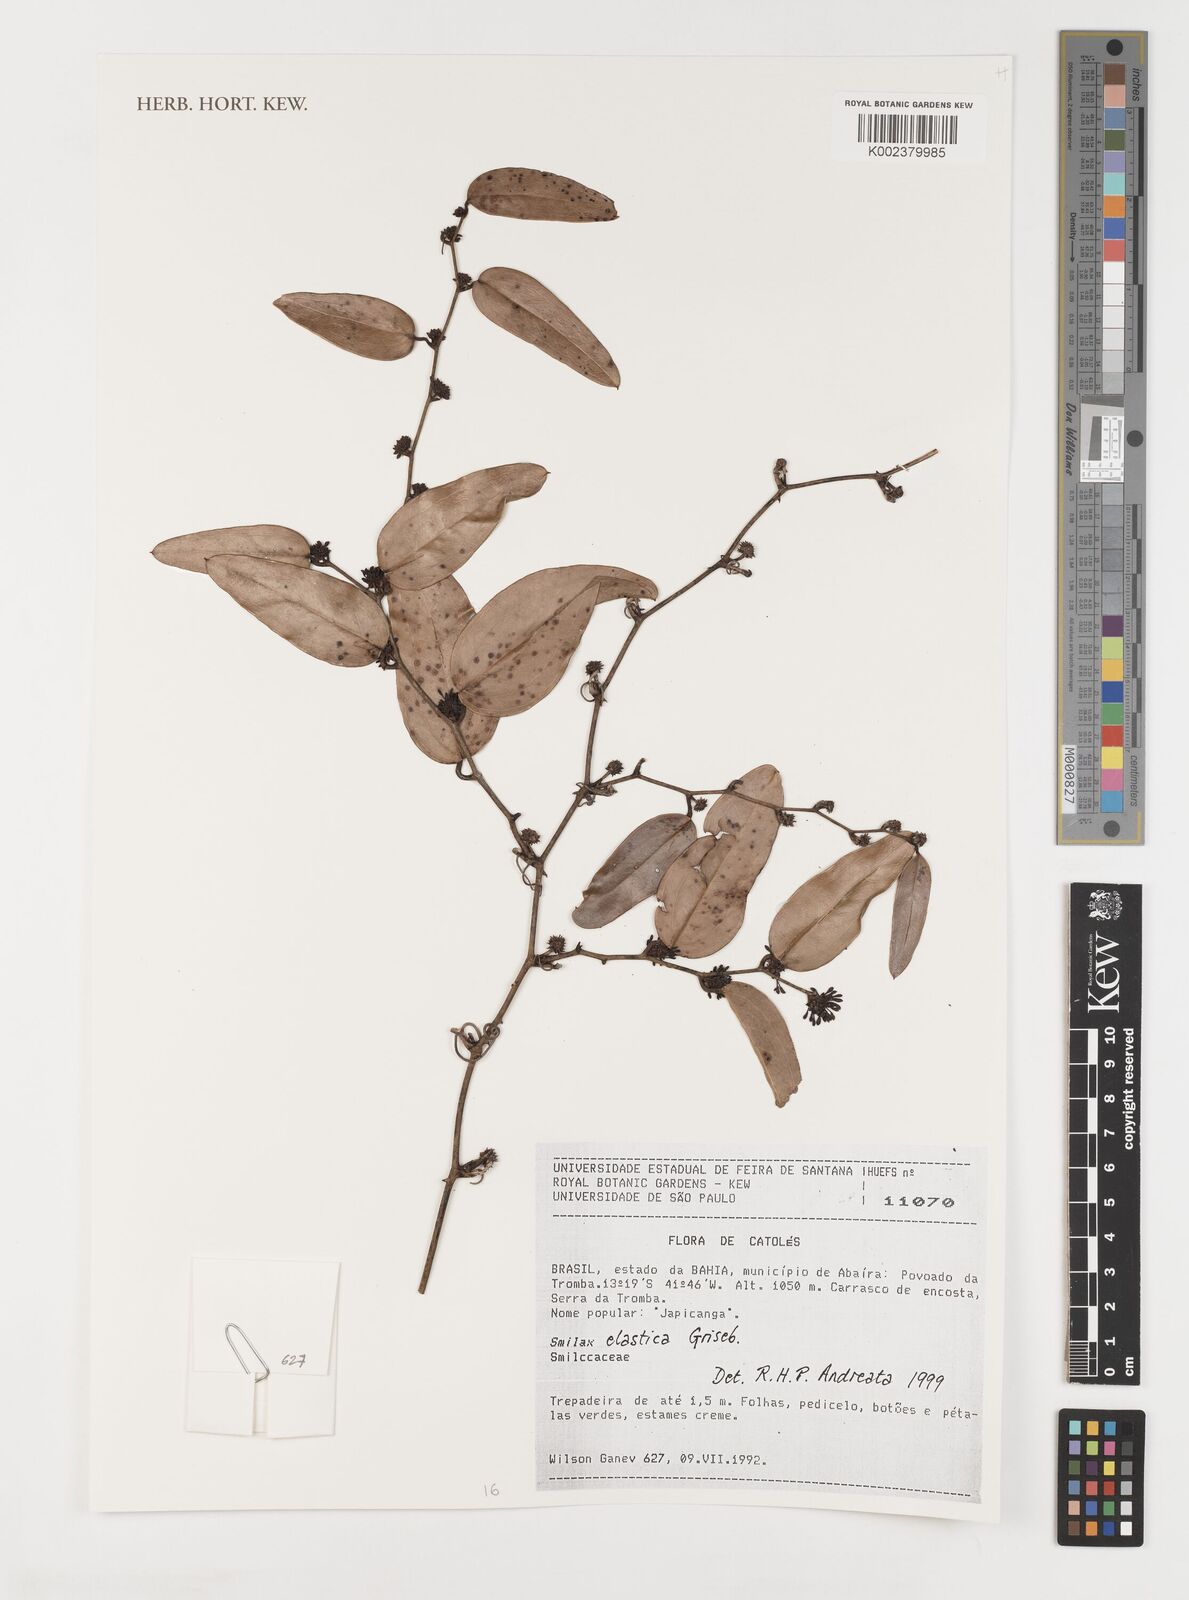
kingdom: Plantae
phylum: Tracheophyta
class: Liliopsida
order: Liliales
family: Smilacaceae
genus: Smilax
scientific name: Smilax elastica
